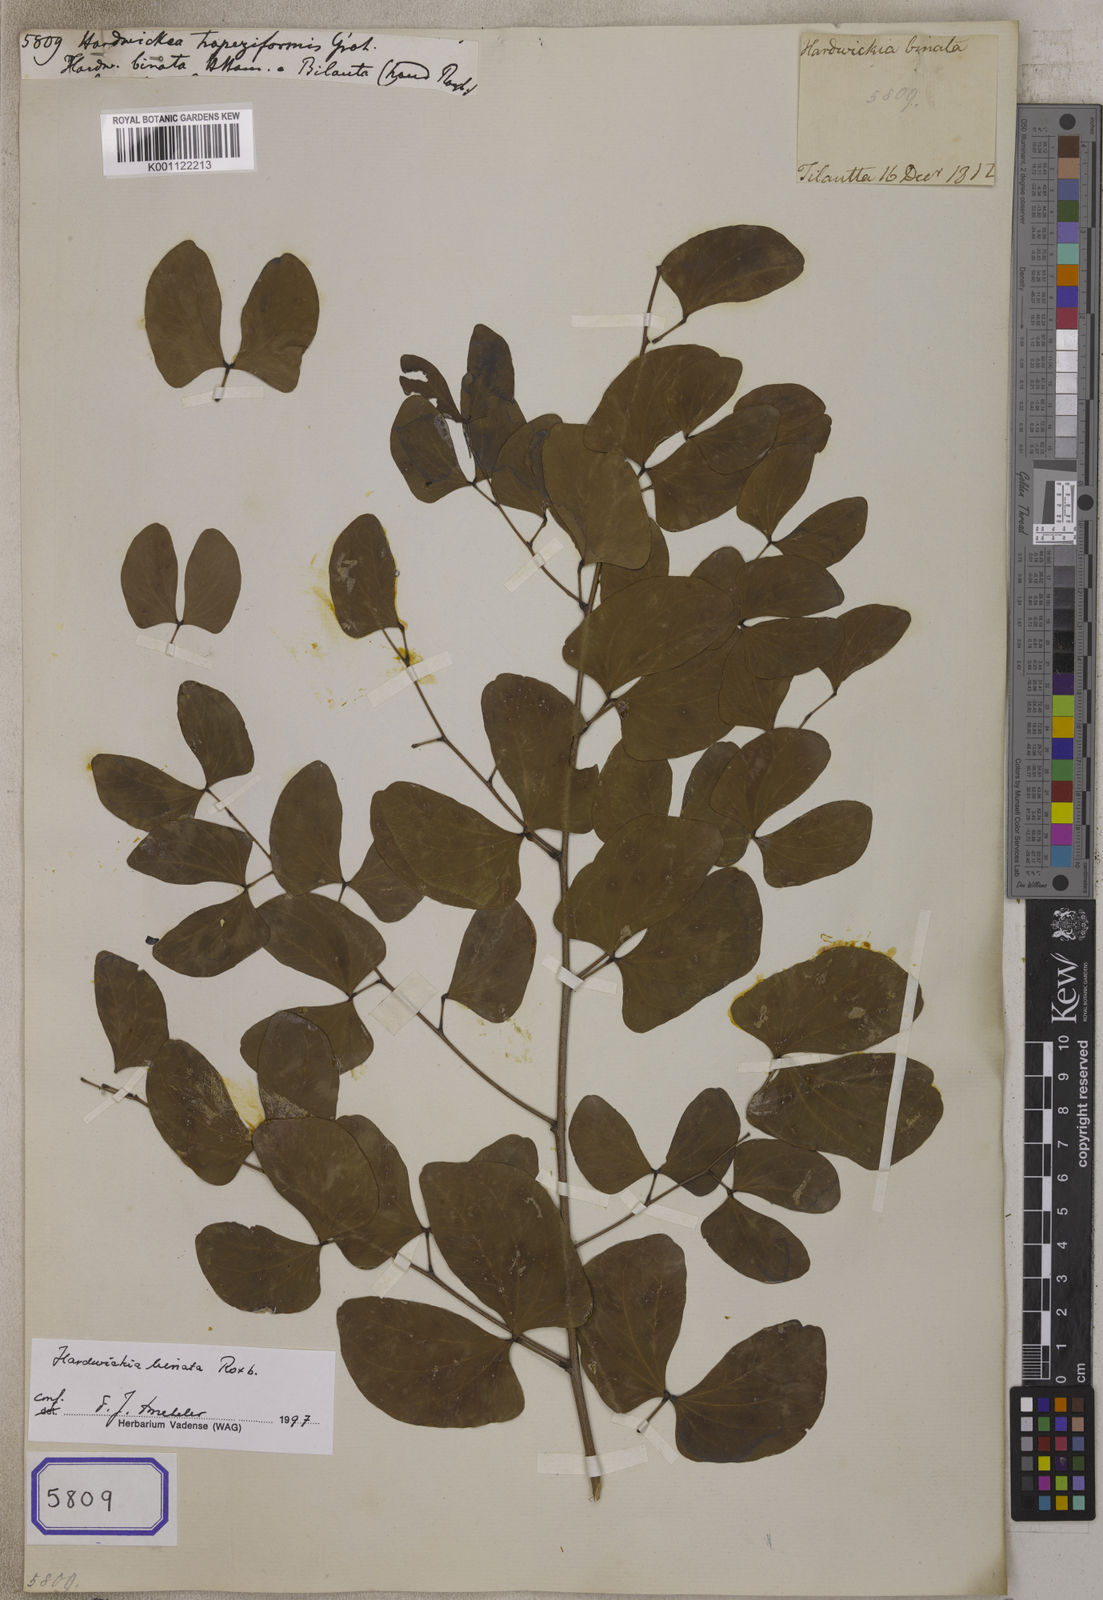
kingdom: Plantae
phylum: Tracheophyta
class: Magnoliopsida
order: Fabales
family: Fabaceae
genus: Hardwickia
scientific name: Hardwickia binata
